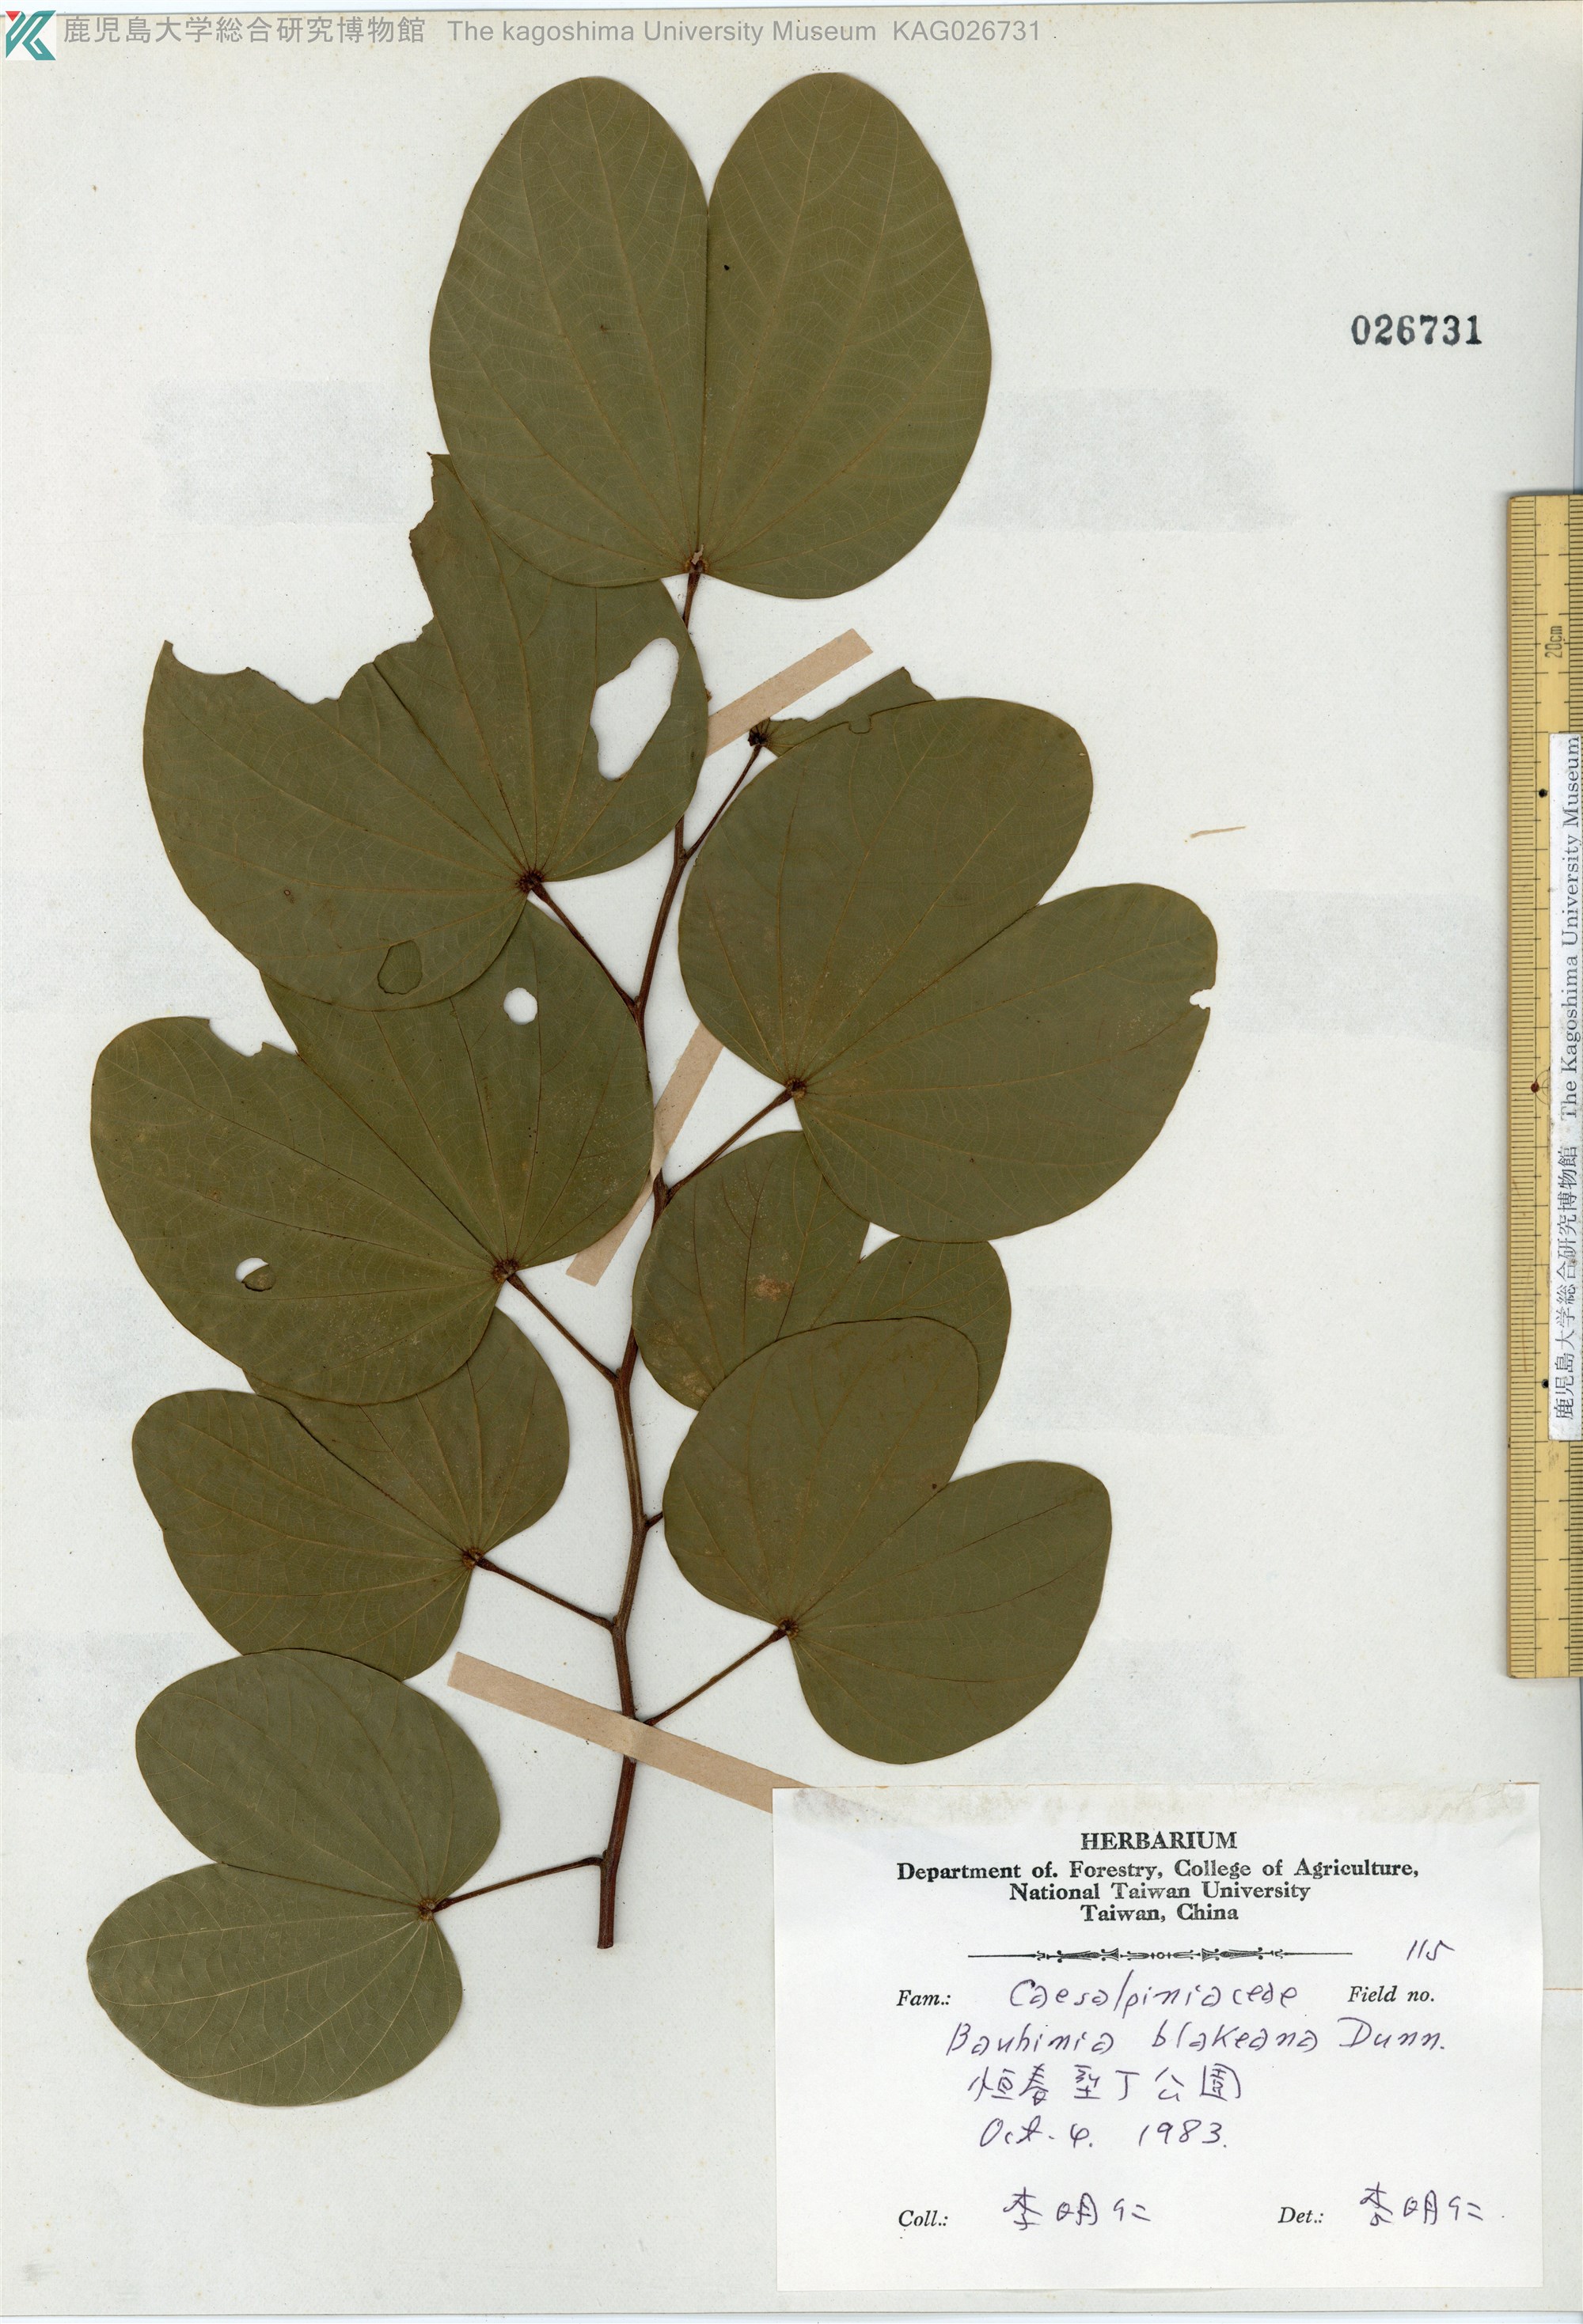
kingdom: Plantae
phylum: Tracheophyta
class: Magnoliopsida
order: Fabales
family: Fabaceae
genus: Bauhinia
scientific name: Bauhinia blakeana
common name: Bauhinia
